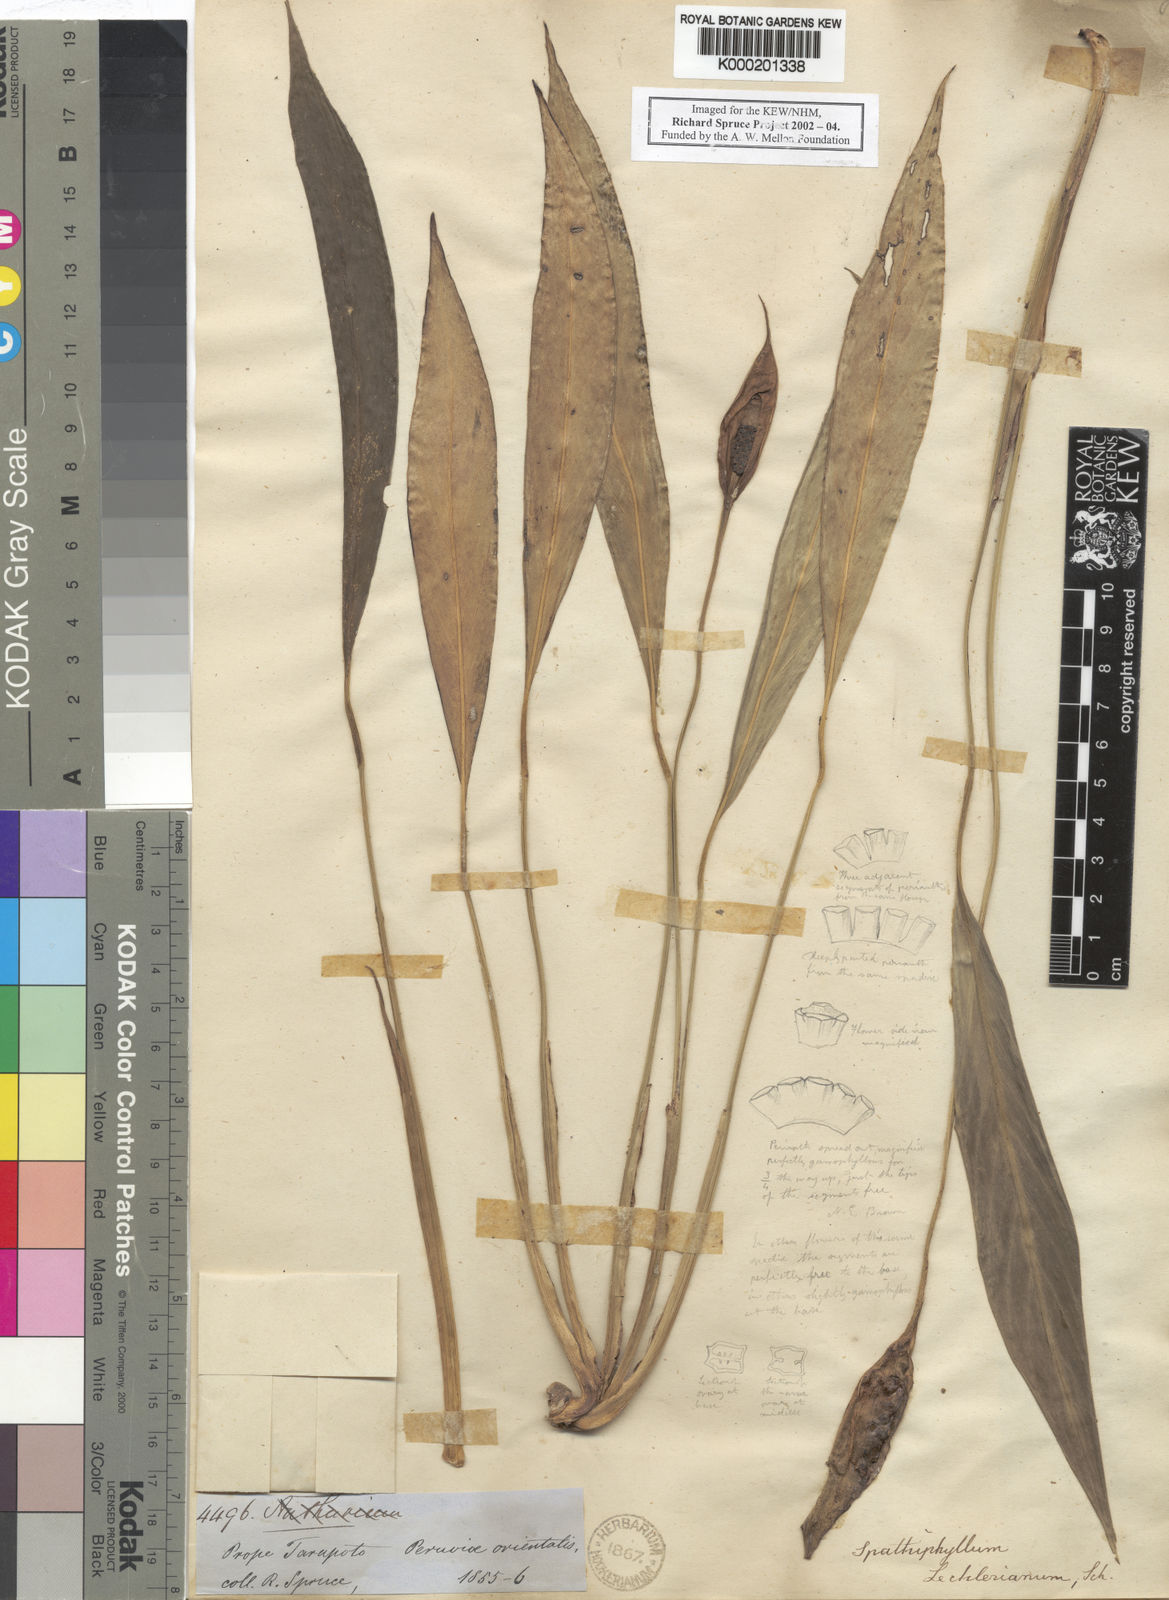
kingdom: Plantae
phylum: Tracheophyta
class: Liliopsida
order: Alismatales
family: Araceae
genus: Spathiphyllum
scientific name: Spathiphyllum lechlerianum
